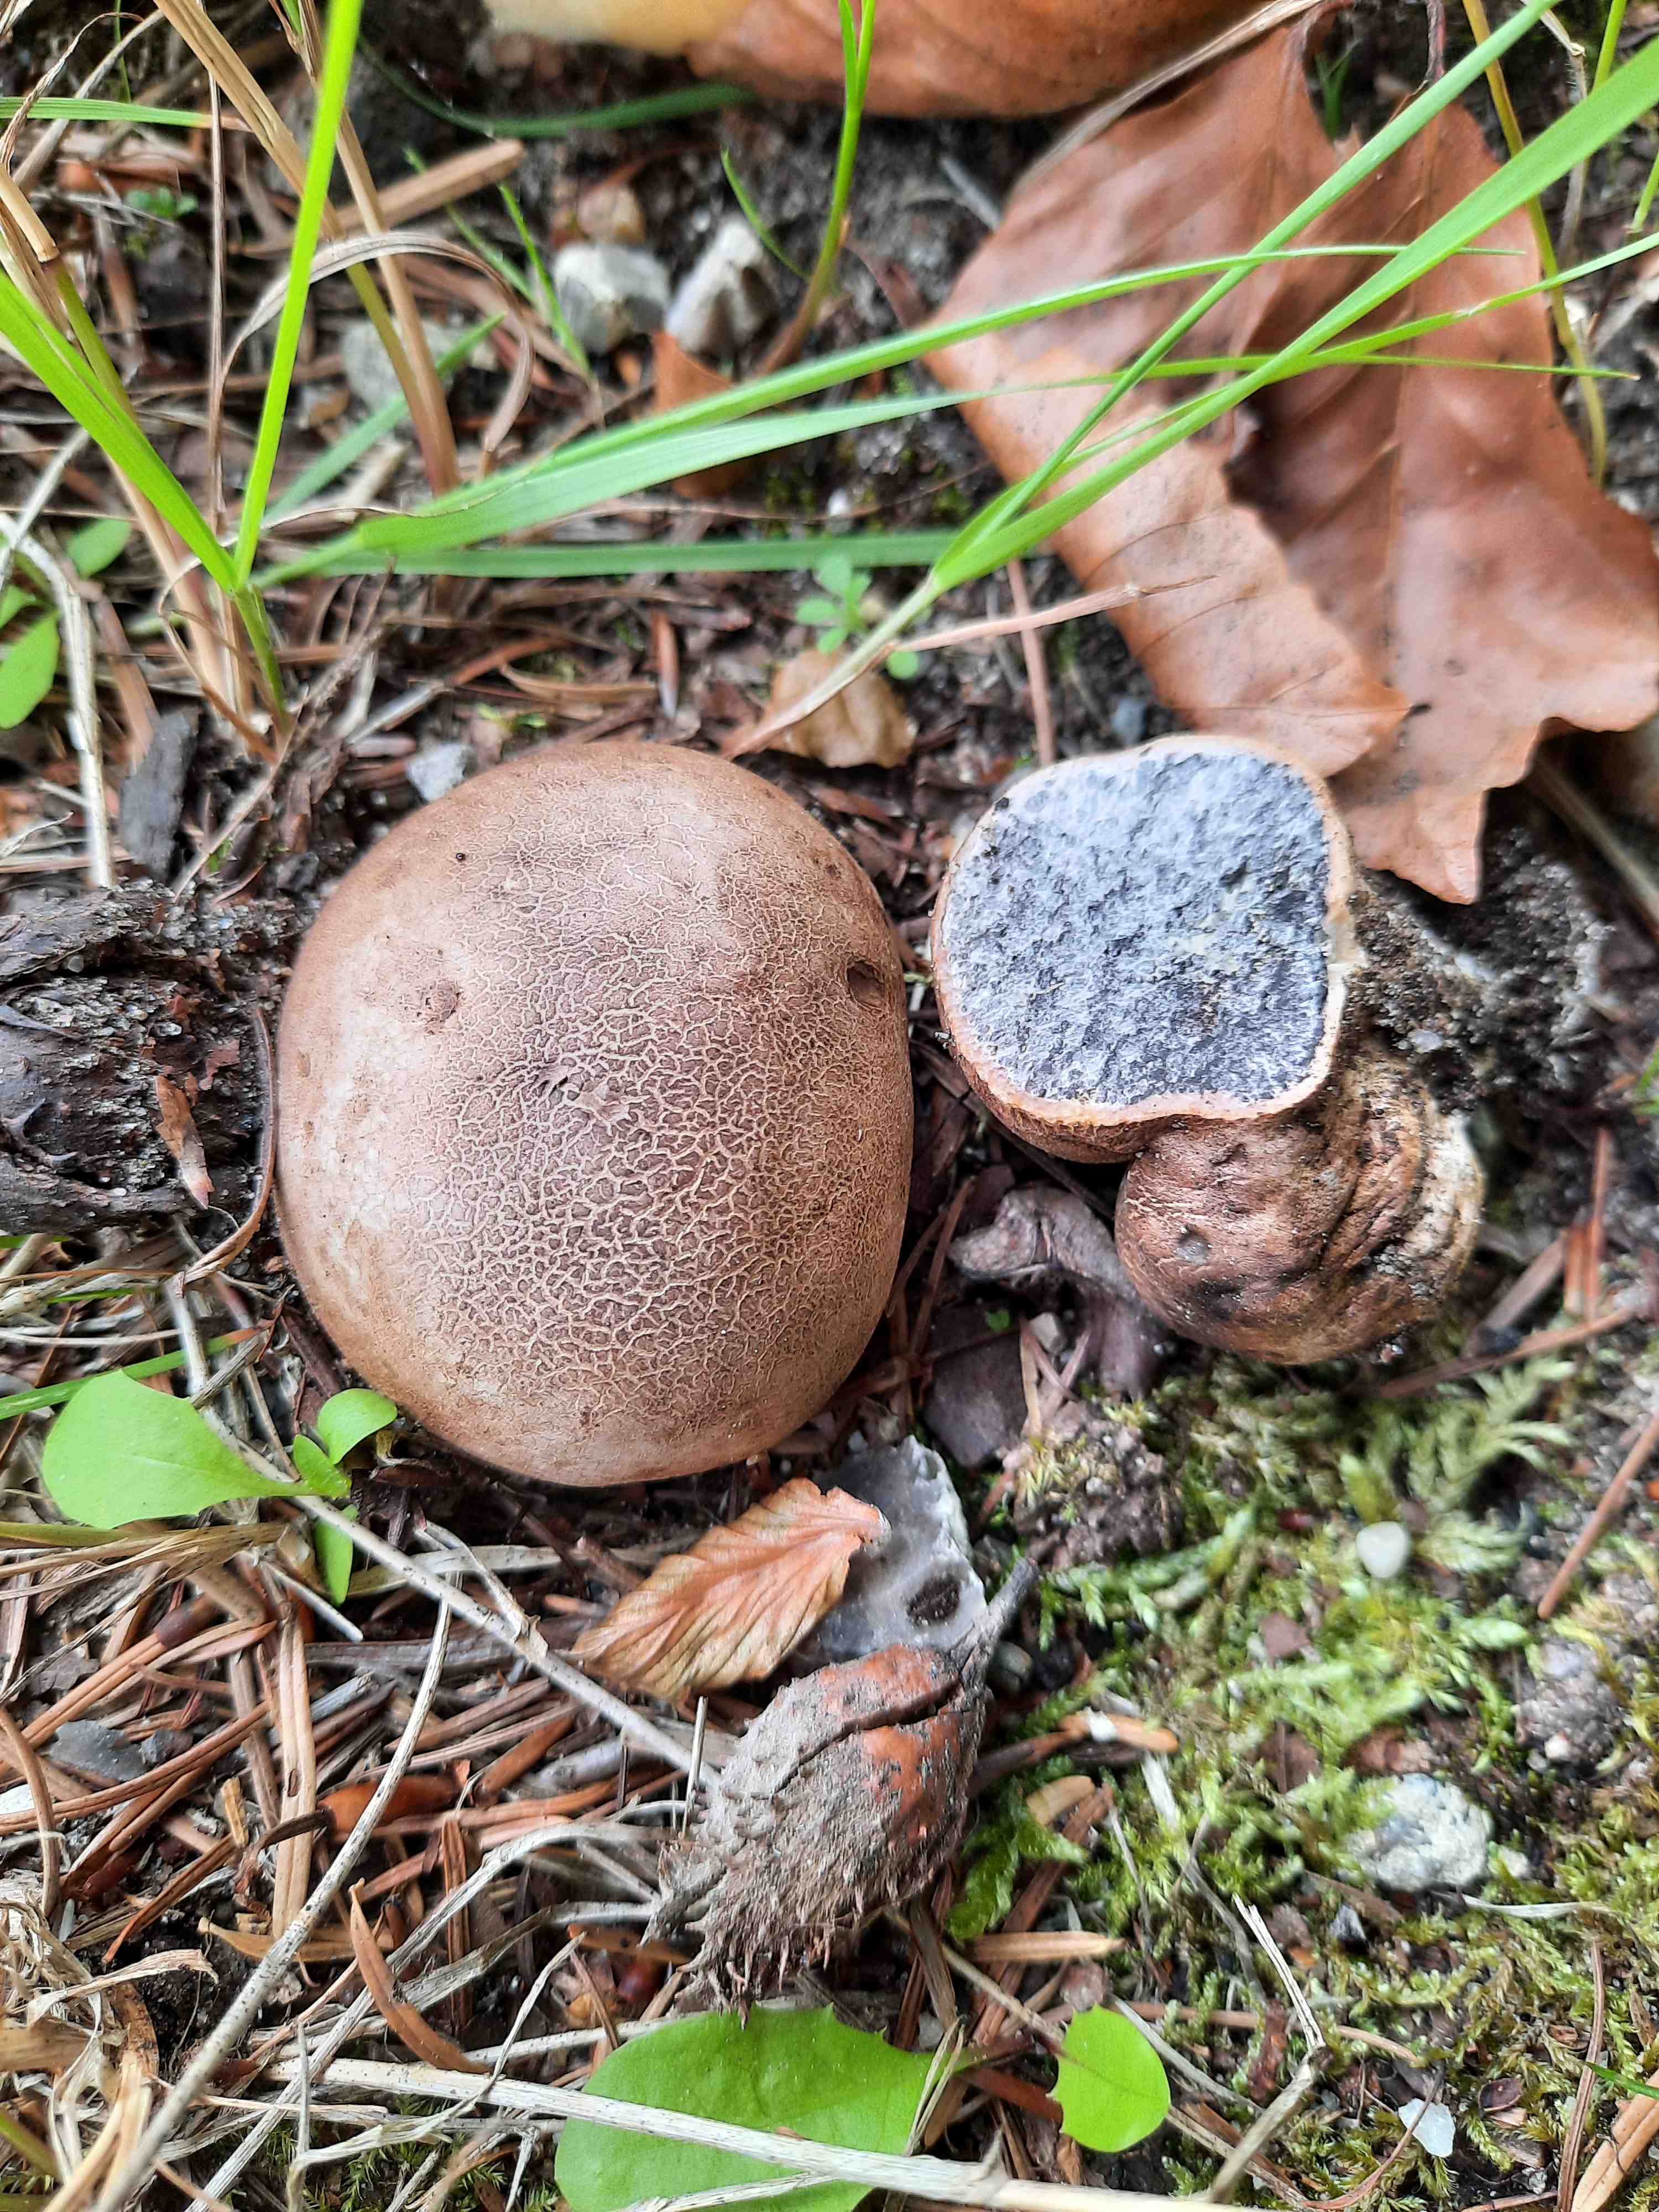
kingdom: Fungi
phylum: Basidiomycota
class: Agaricomycetes
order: Boletales
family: Sclerodermataceae
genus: Scleroderma
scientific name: Scleroderma bovista
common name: bovist-bruskbold
